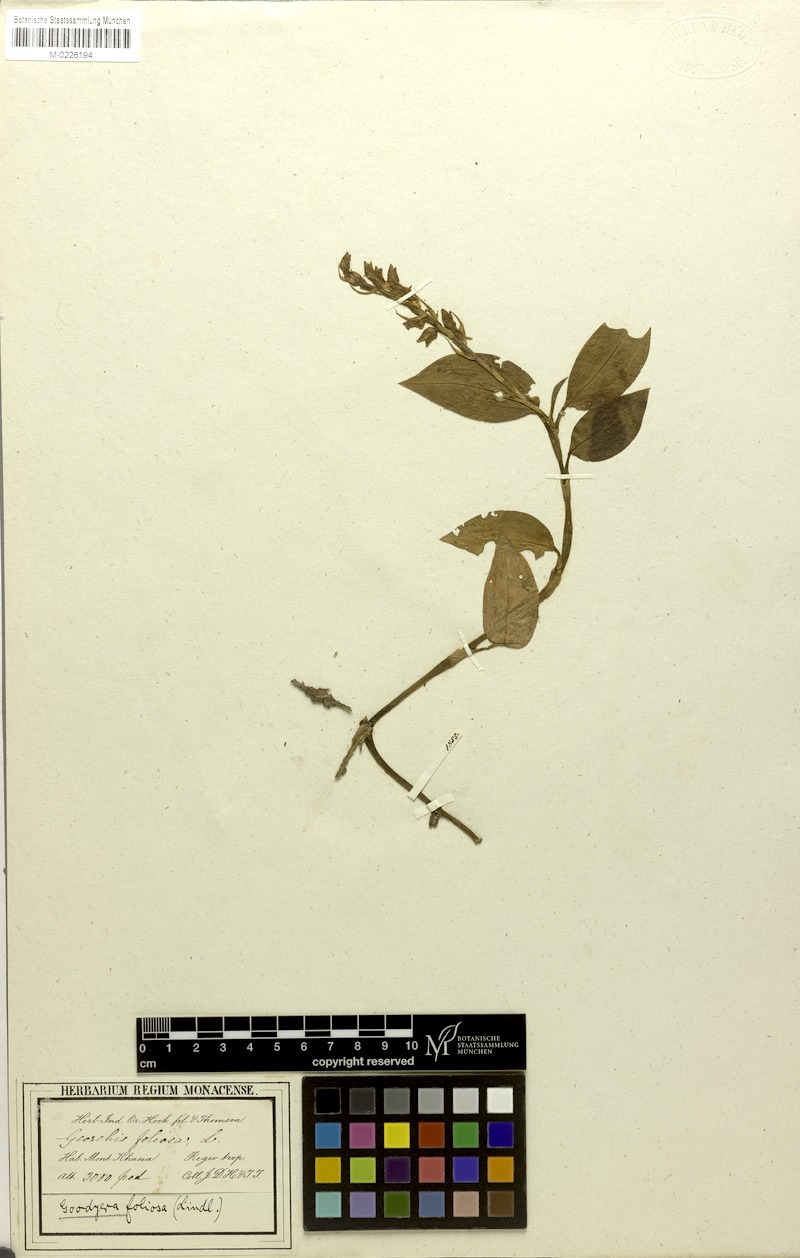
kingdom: Plantae
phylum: Tracheophyta
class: Liliopsida
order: Asparagales
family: Orchidaceae
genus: Goodyera
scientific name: Goodyera foliosa
